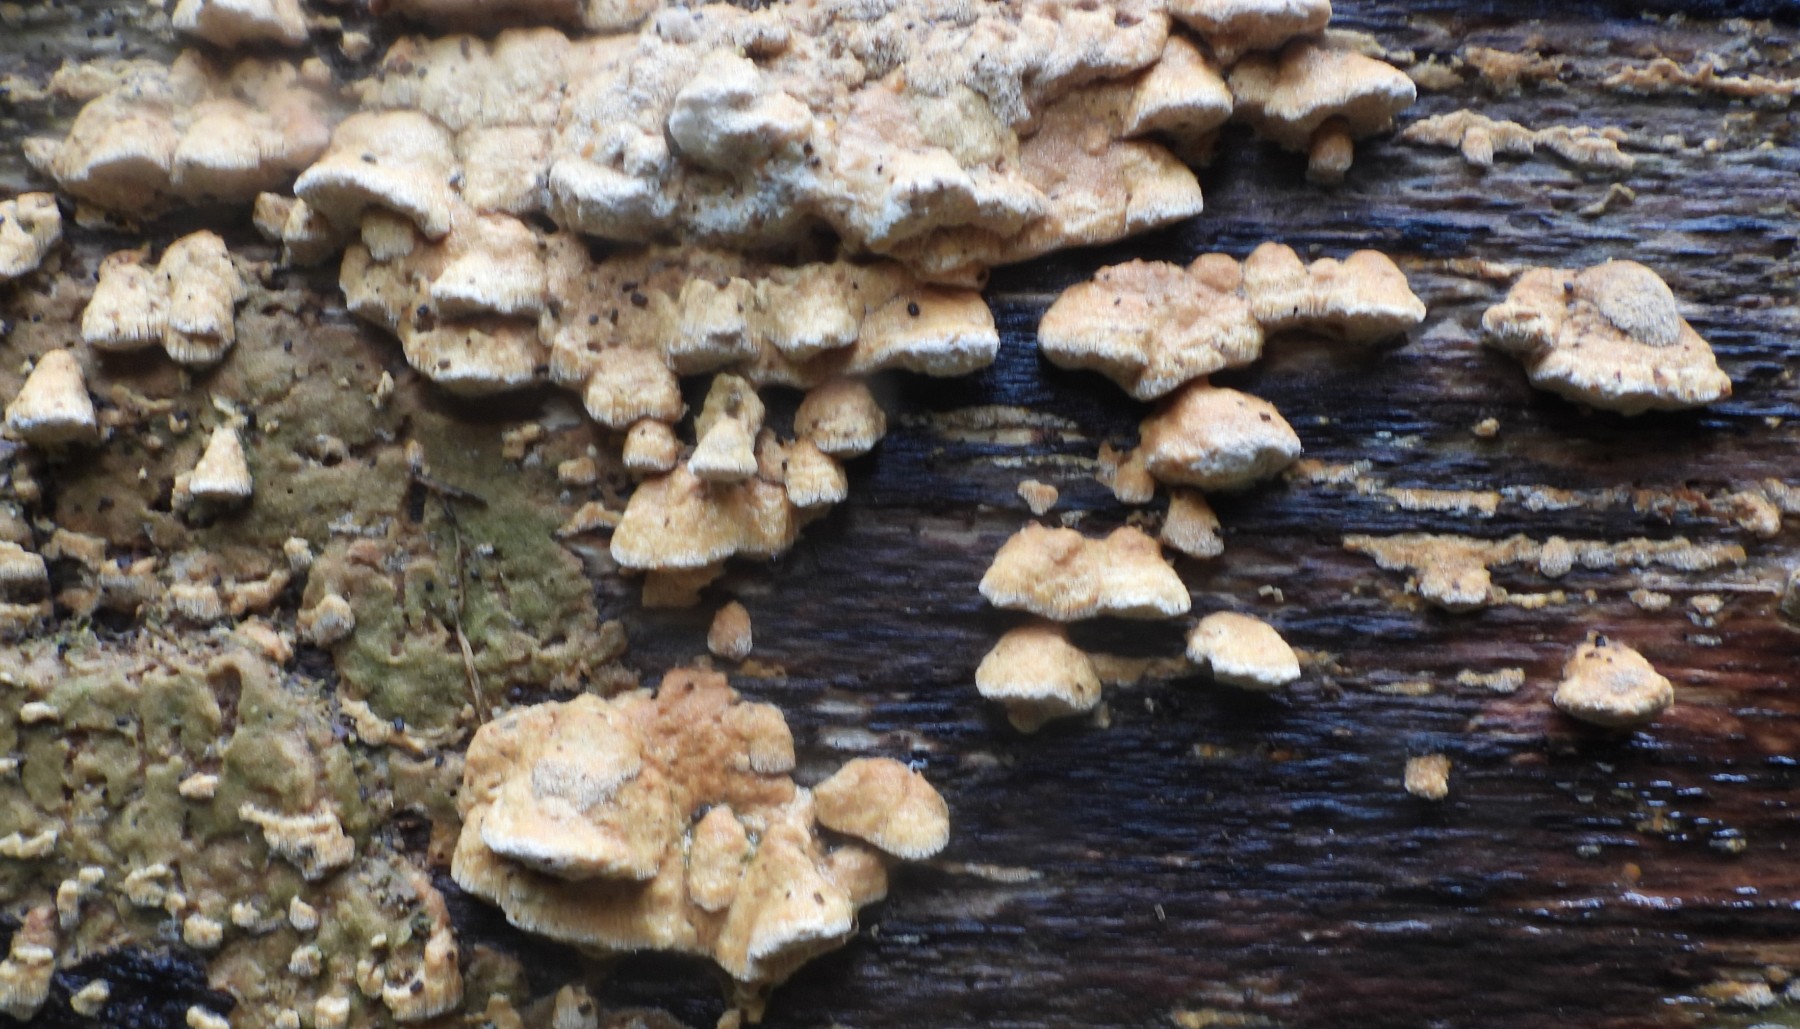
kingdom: Fungi
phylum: Basidiomycota
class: Agaricomycetes
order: Polyporales
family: Fomitopsidaceae
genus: Neoantrodia
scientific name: Neoantrodia serialis
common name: række-sejporesvamp
